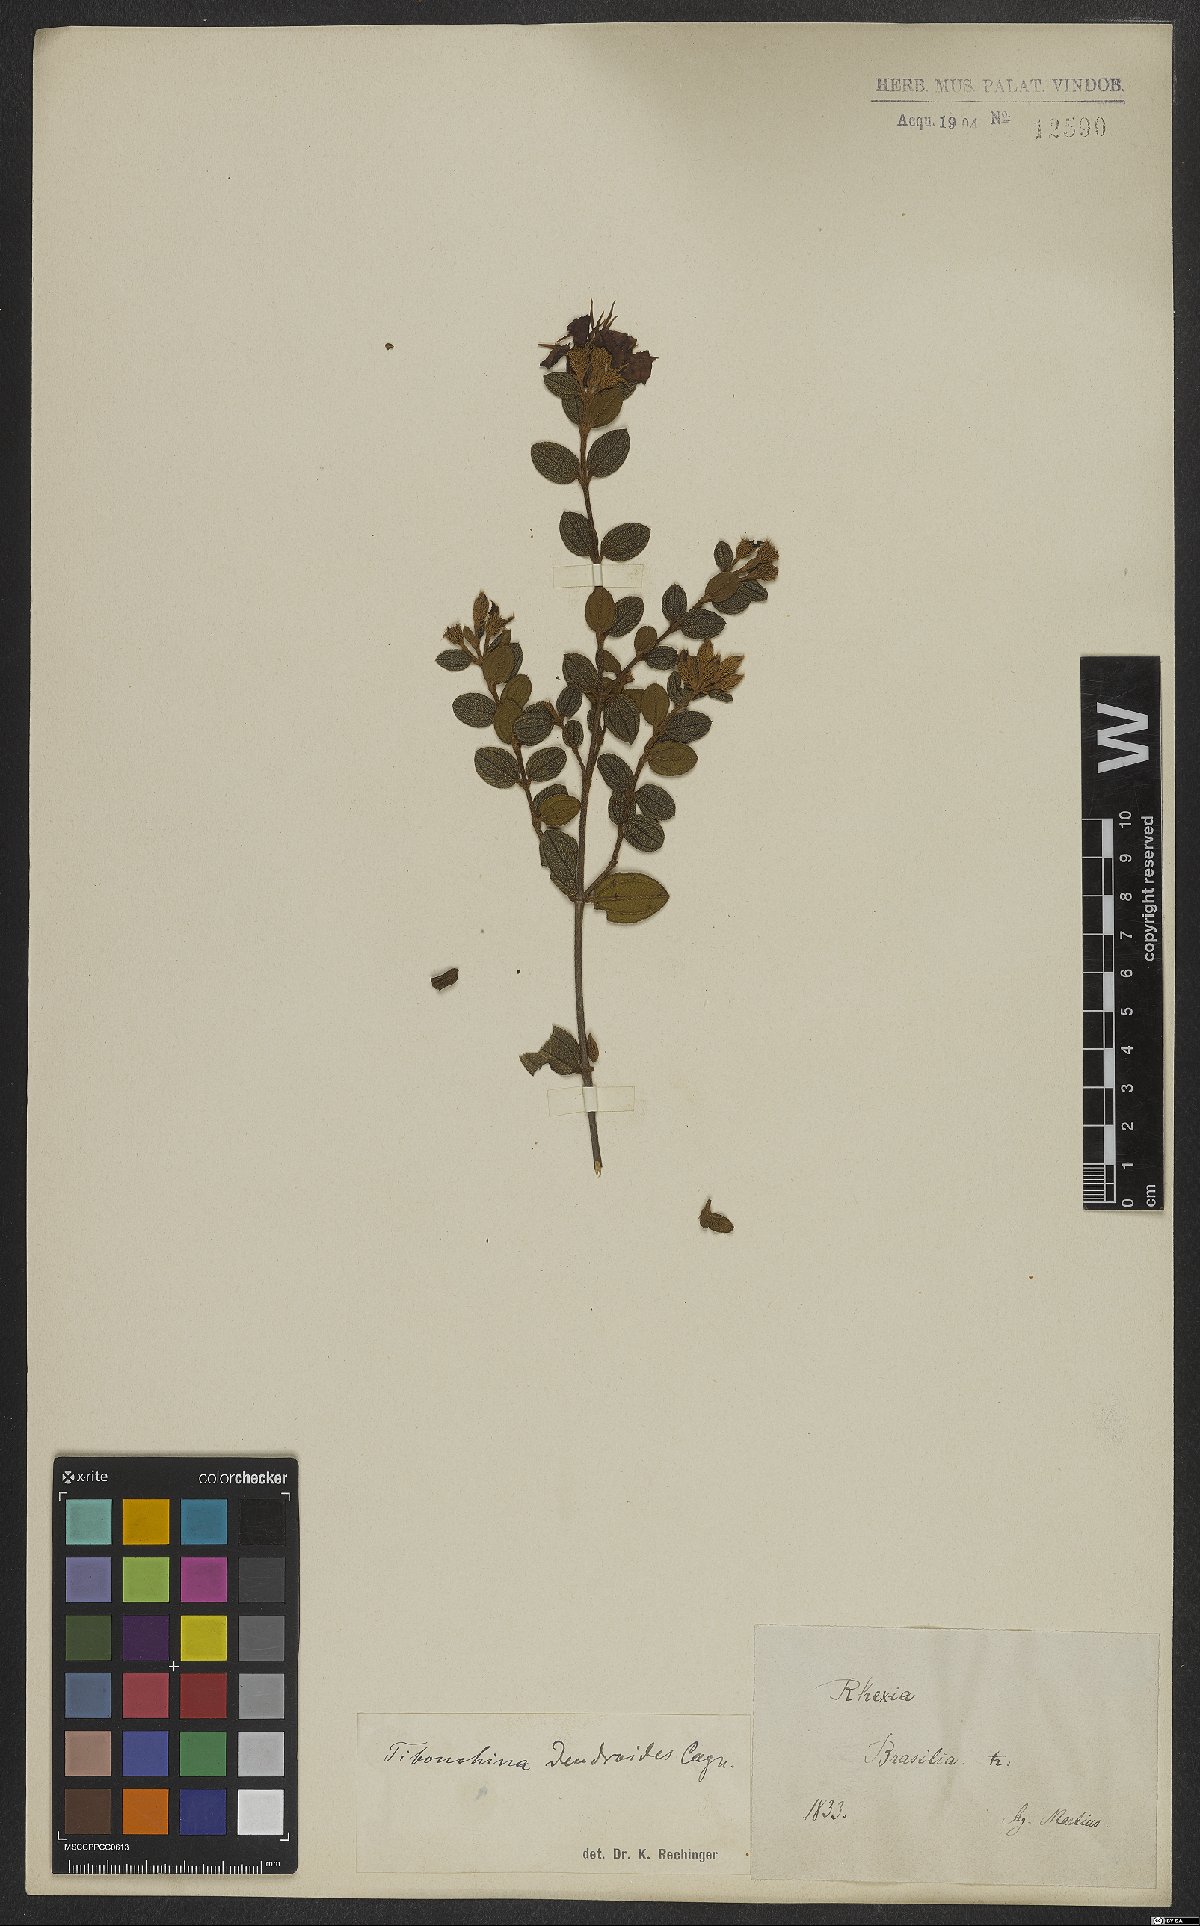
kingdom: Plantae
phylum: Tracheophyta
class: Magnoliopsida
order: Myrtales
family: Melastomataceae
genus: Pleroma
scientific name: Pleroma dendroides
